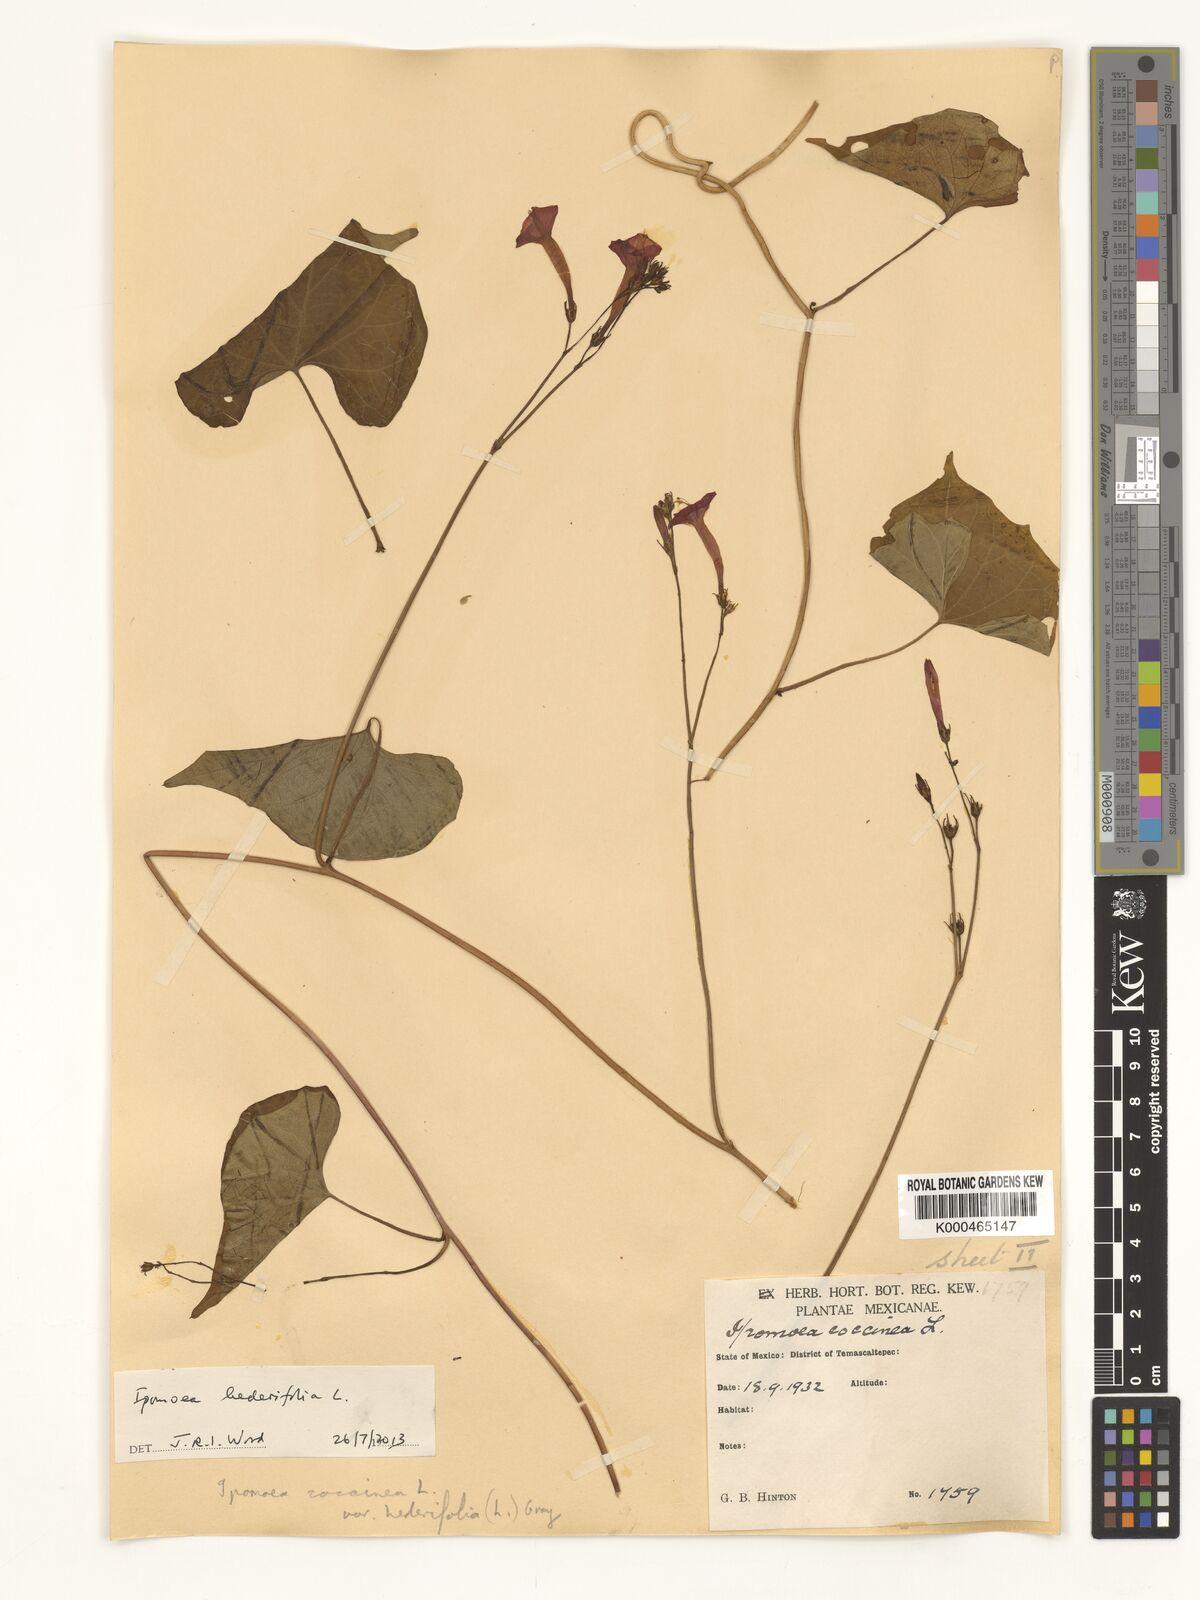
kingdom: Plantae
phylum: Tracheophyta
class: Magnoliopsida
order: Solanales
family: Convolvulaceae
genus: Ipomoea
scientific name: Ipomoea hederifolia
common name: Ivy-leaf morning-glory
